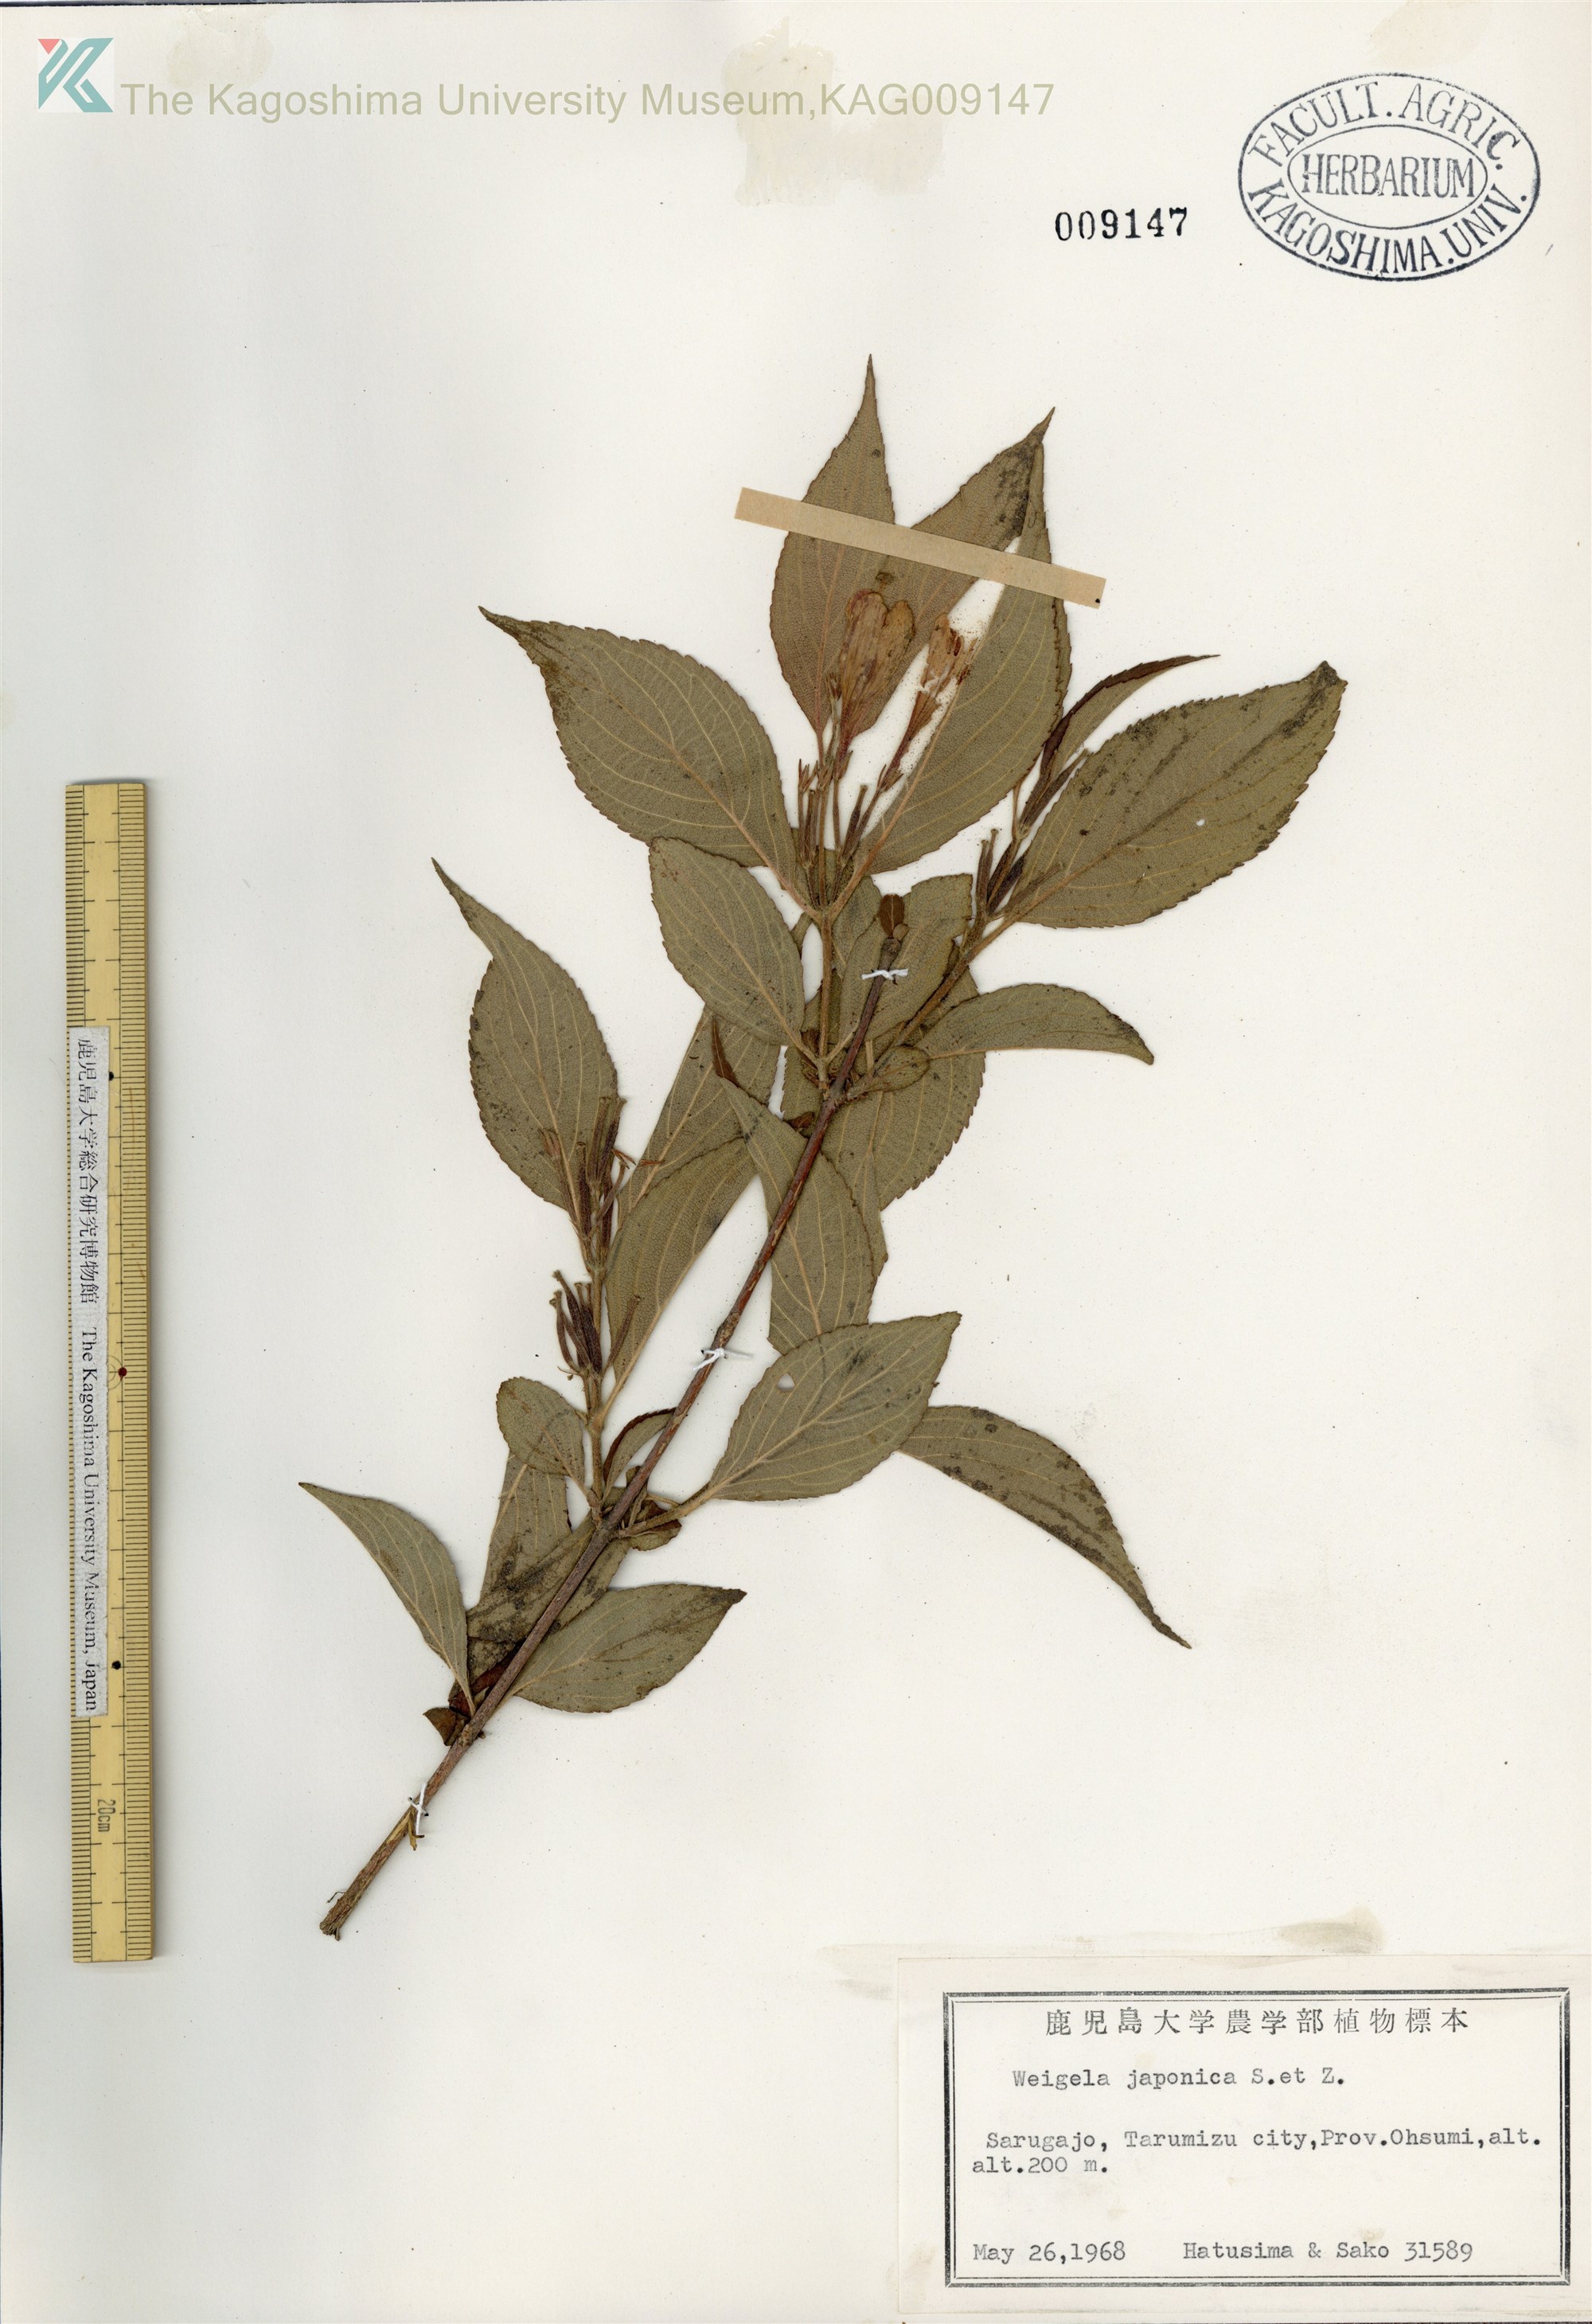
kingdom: Plantae
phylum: Tracheophyta
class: Magnoliopsida
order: Dipsacales
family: Caprifoliaceae
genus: Weigela
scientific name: Weigela japonica
